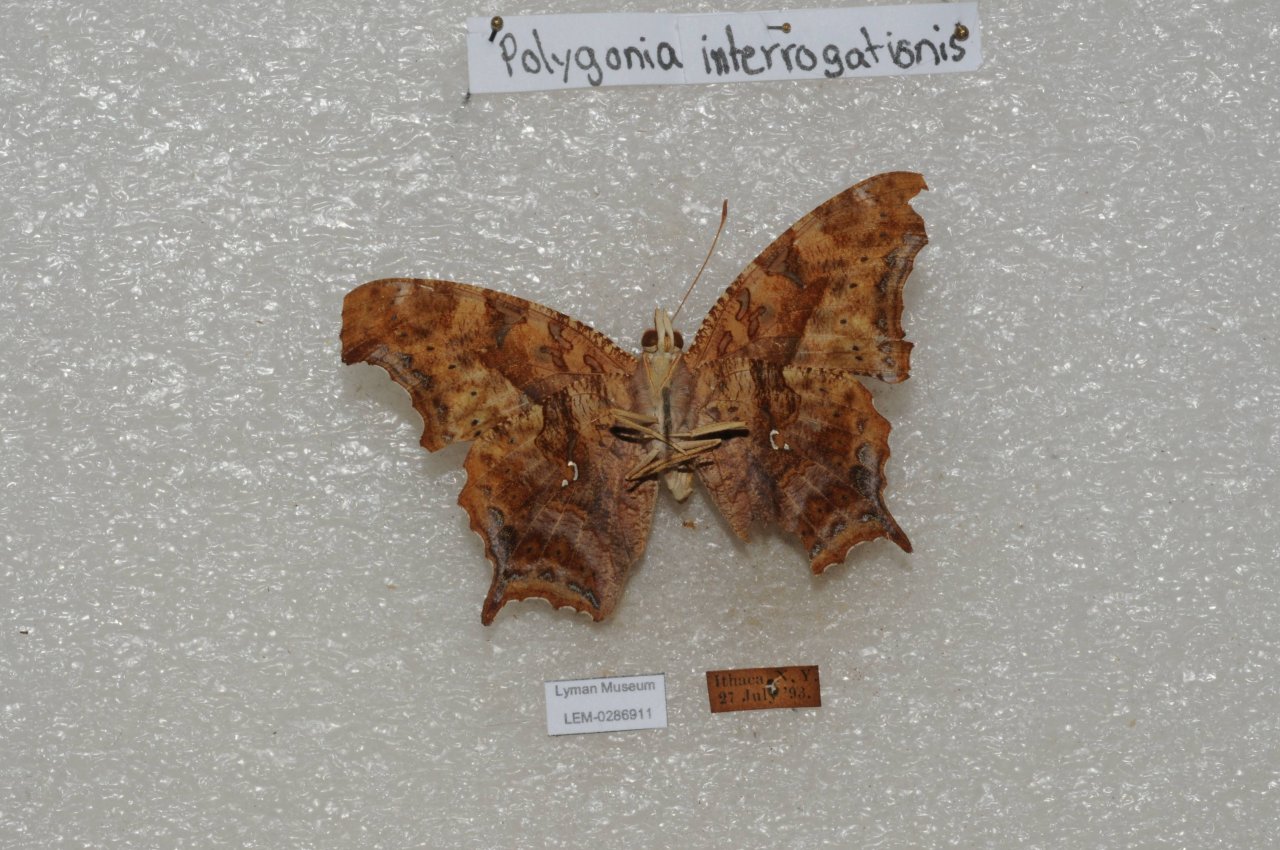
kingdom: Animalia
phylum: Arthropoda
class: Insecta
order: Lepidoptera
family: Nymphalidae
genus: Polygonia
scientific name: Polygonia interrogationis
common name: Question Mark
